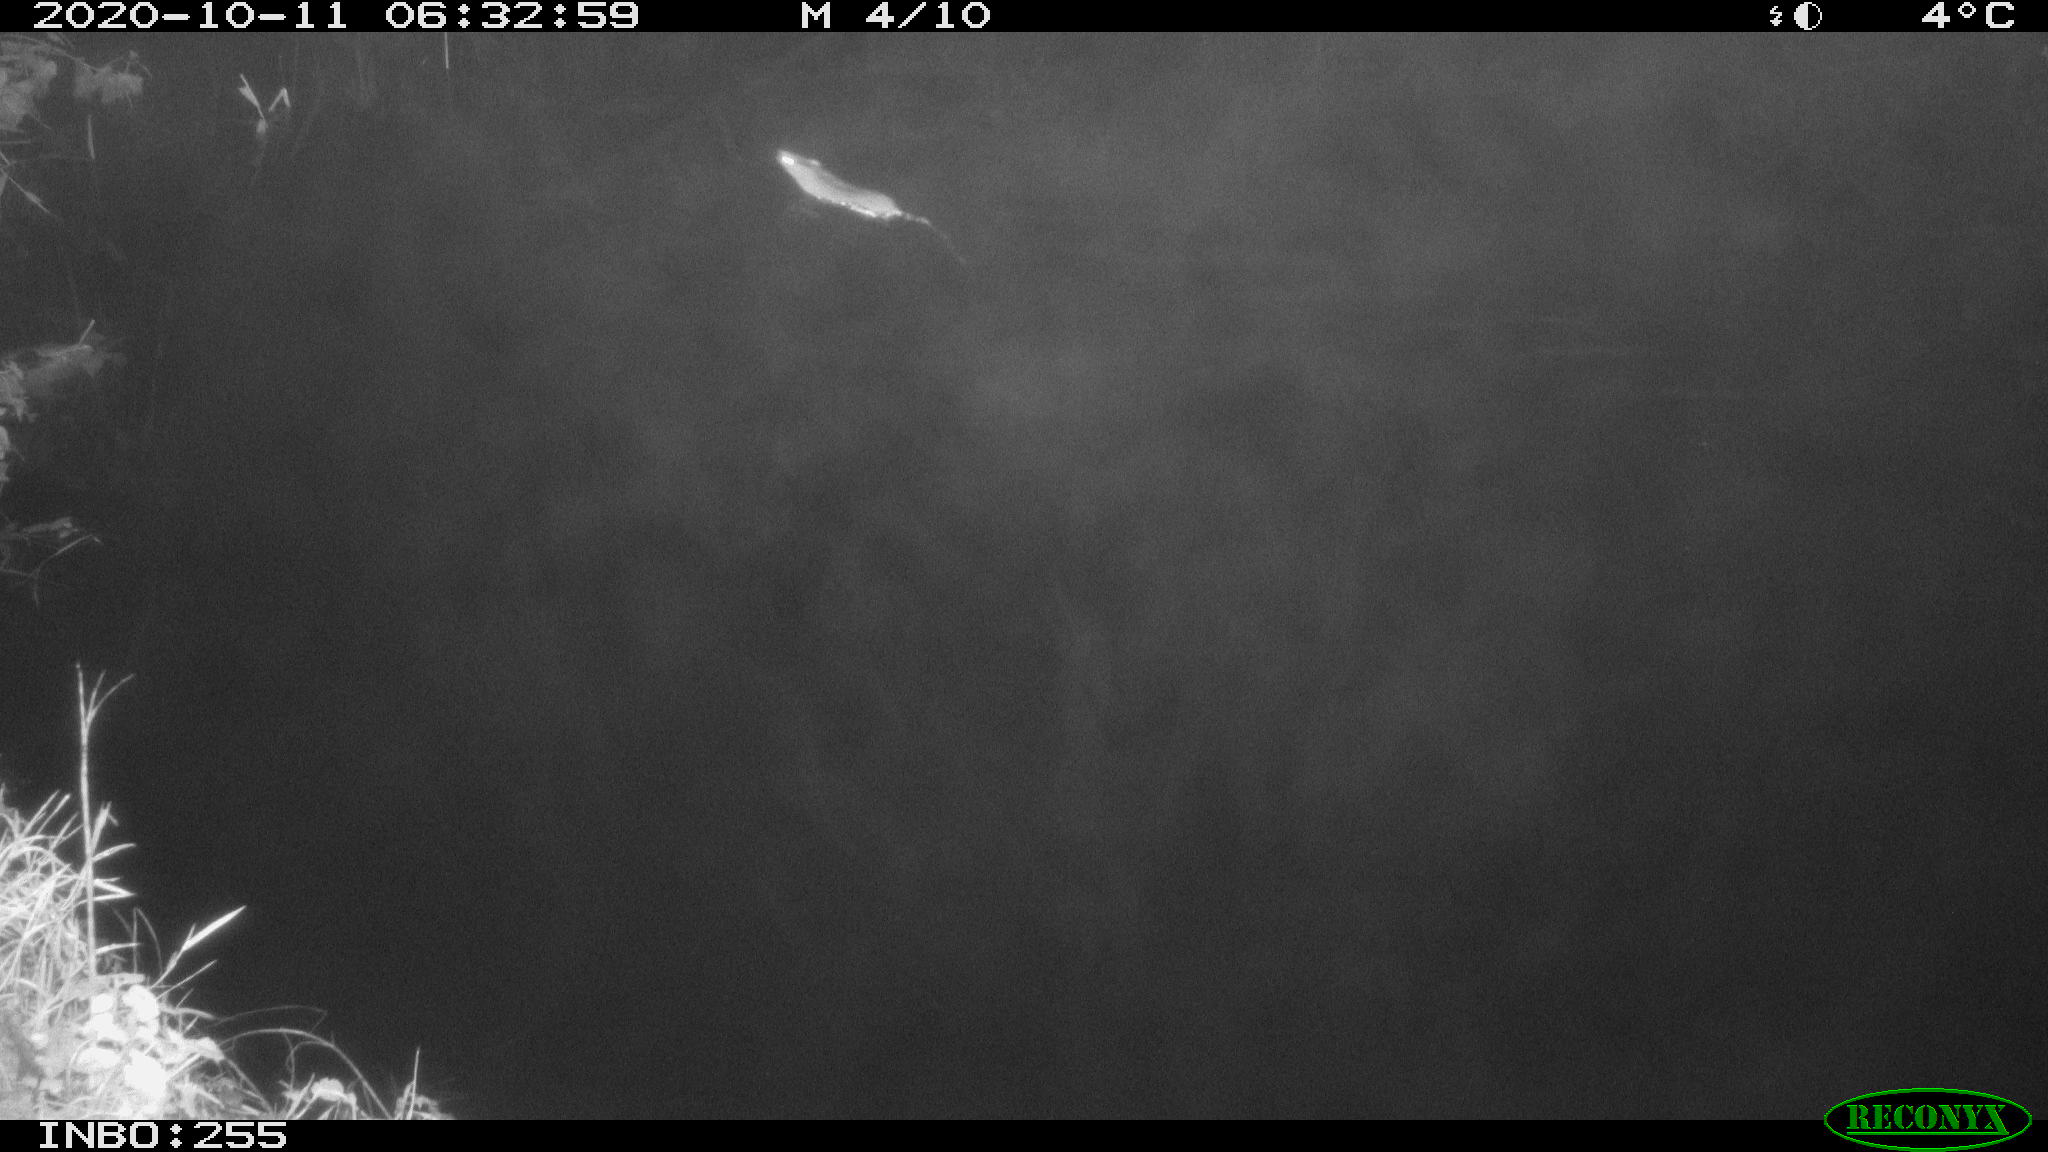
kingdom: Animalia
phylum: Chordata
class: Mammalia
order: Rodentia
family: Muridae
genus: Rattus
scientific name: Rattus norvegicus
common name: Brown rat
